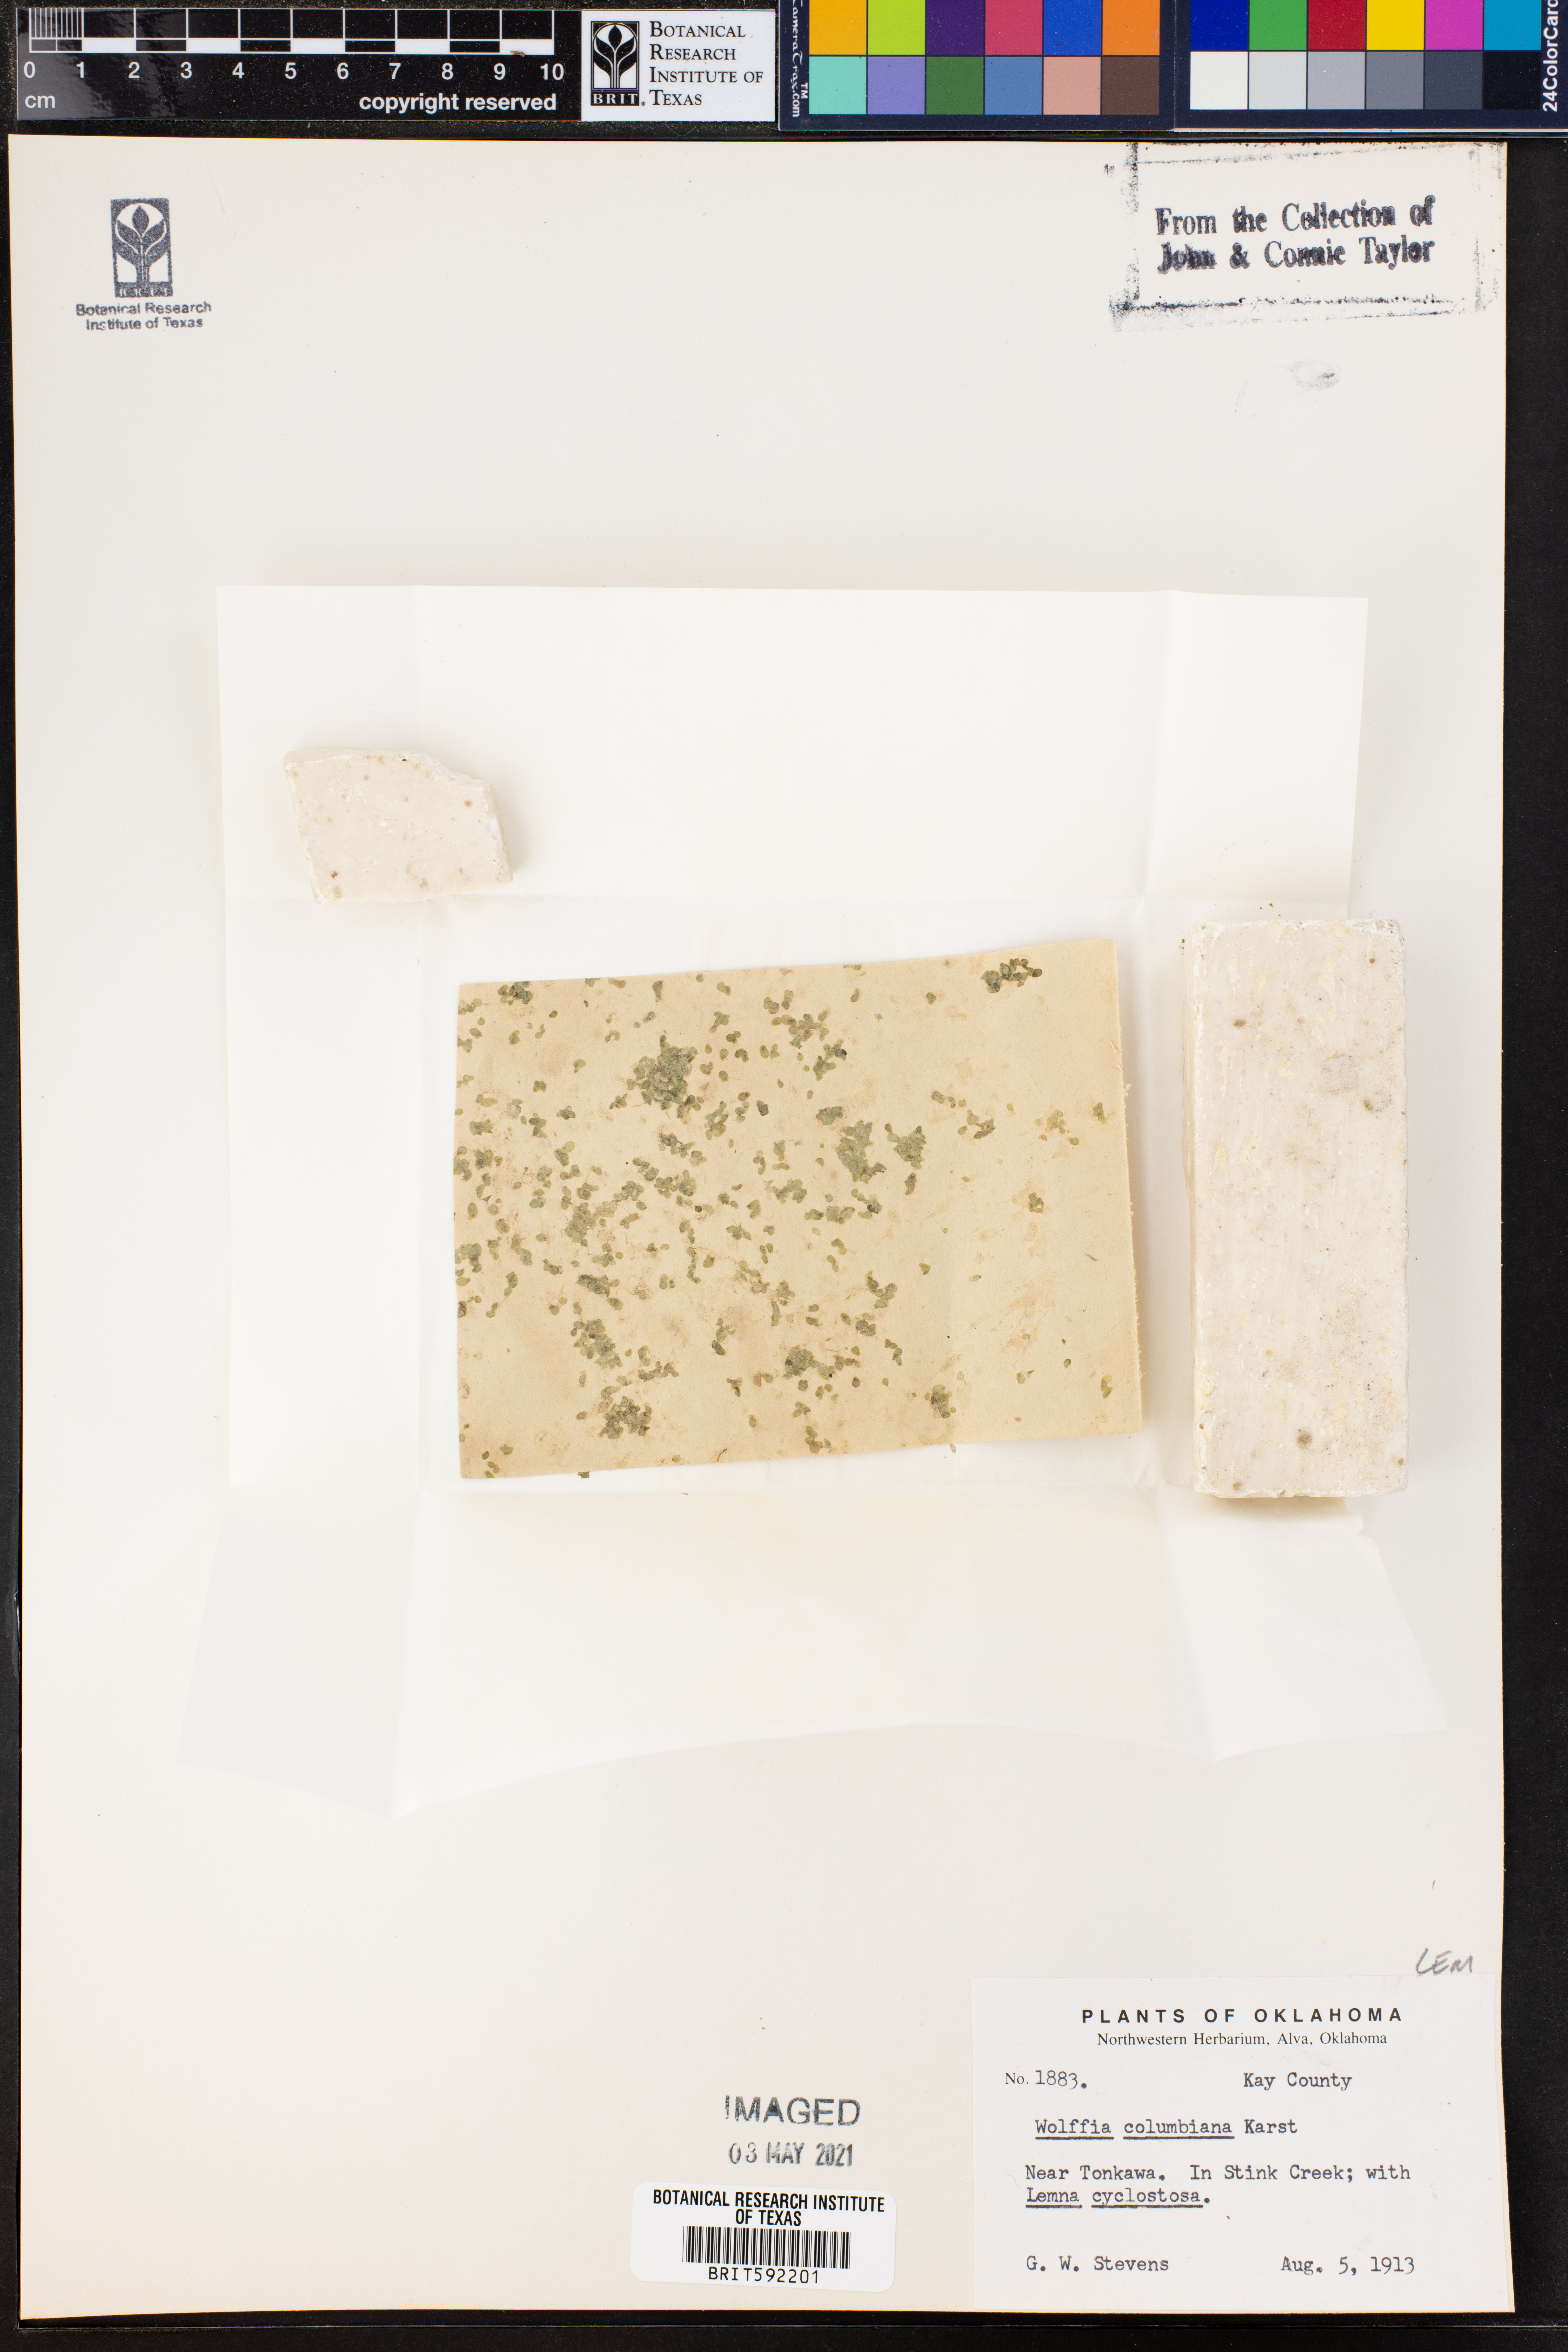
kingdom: Plantae
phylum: Tracheophyta
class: Liliopsida
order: Alismatales
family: Araceae
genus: Wolffia
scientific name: Wolffia columbiana
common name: Columbia watermeal
